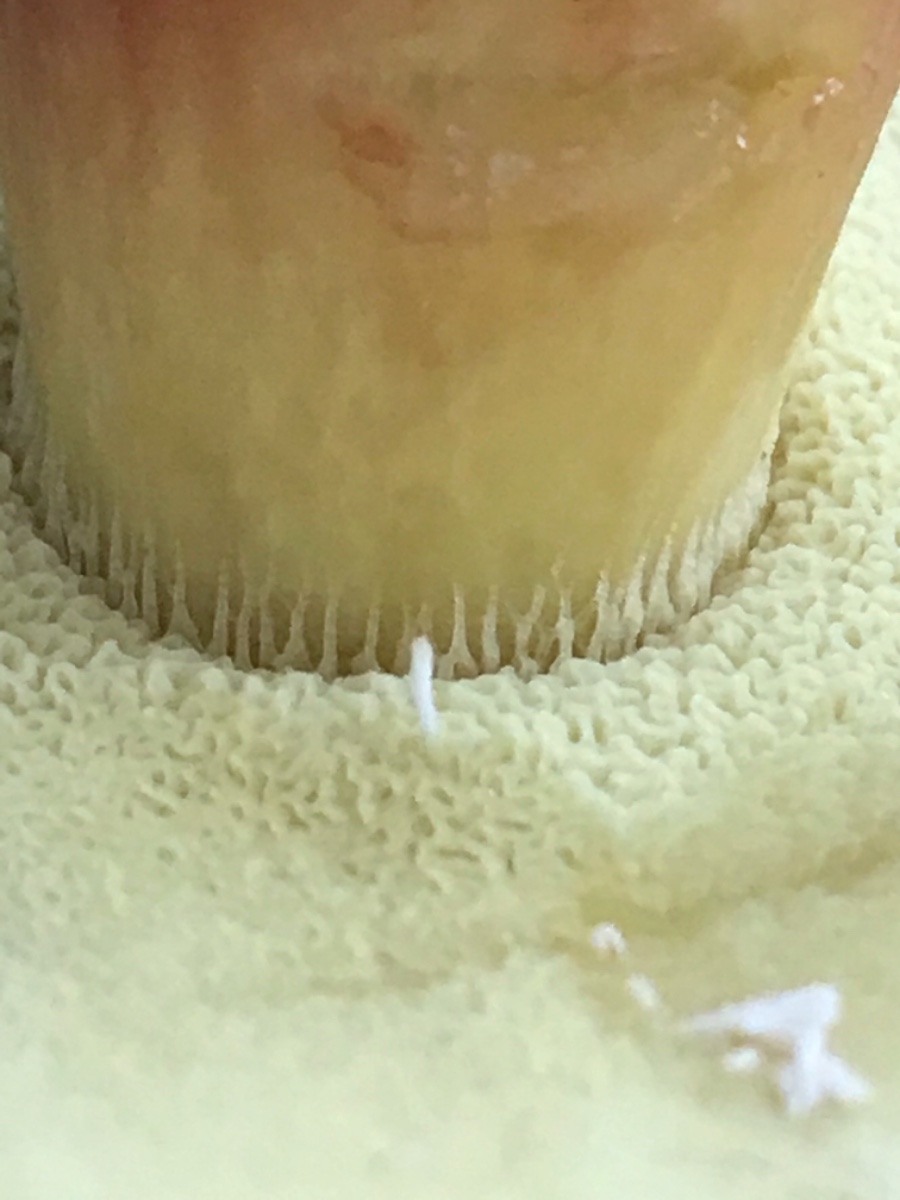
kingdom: Fungi
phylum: Basidiomycota
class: Agaricomycetes
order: Boletales
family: Boletaceae
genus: Xerocomellus
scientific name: Xerocomellus pruinatus
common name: dugget rørhat
